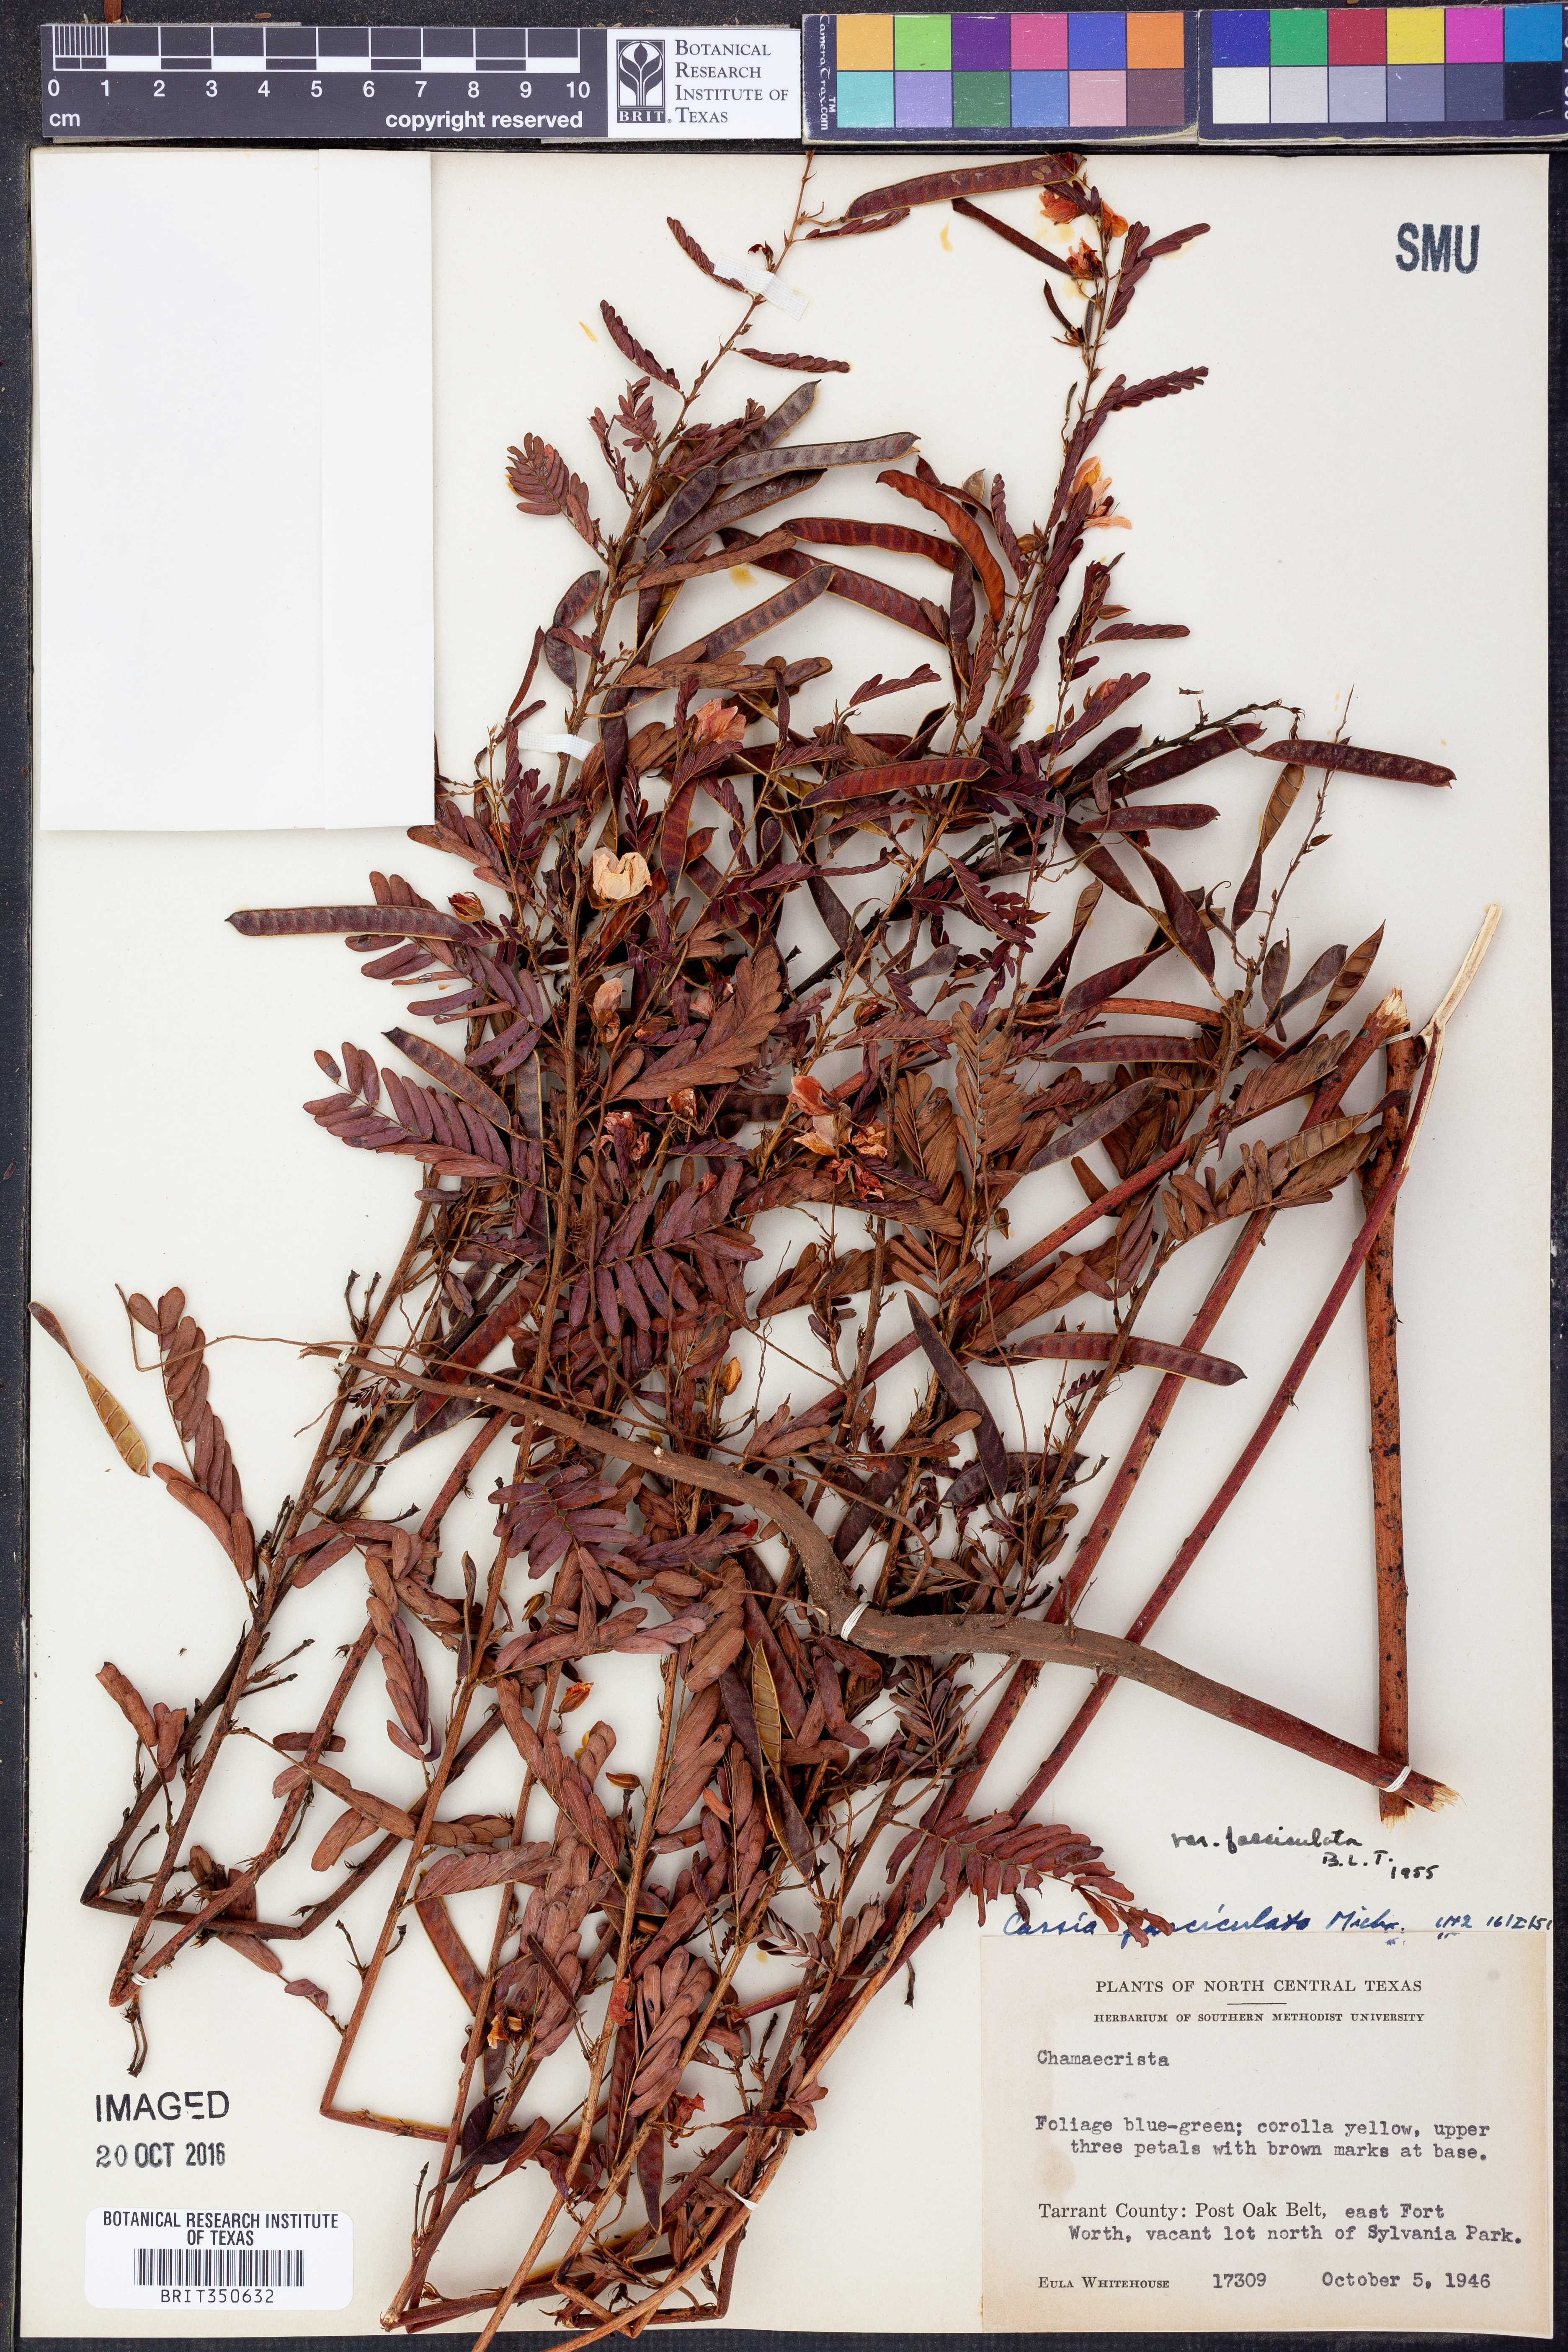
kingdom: Plantae
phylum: Tracheophyta
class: Magnoliopsida
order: Fabales
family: Fabaceae
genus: Chamaecrista
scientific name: Chamaecrista fasciculata
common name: Golden cassia
